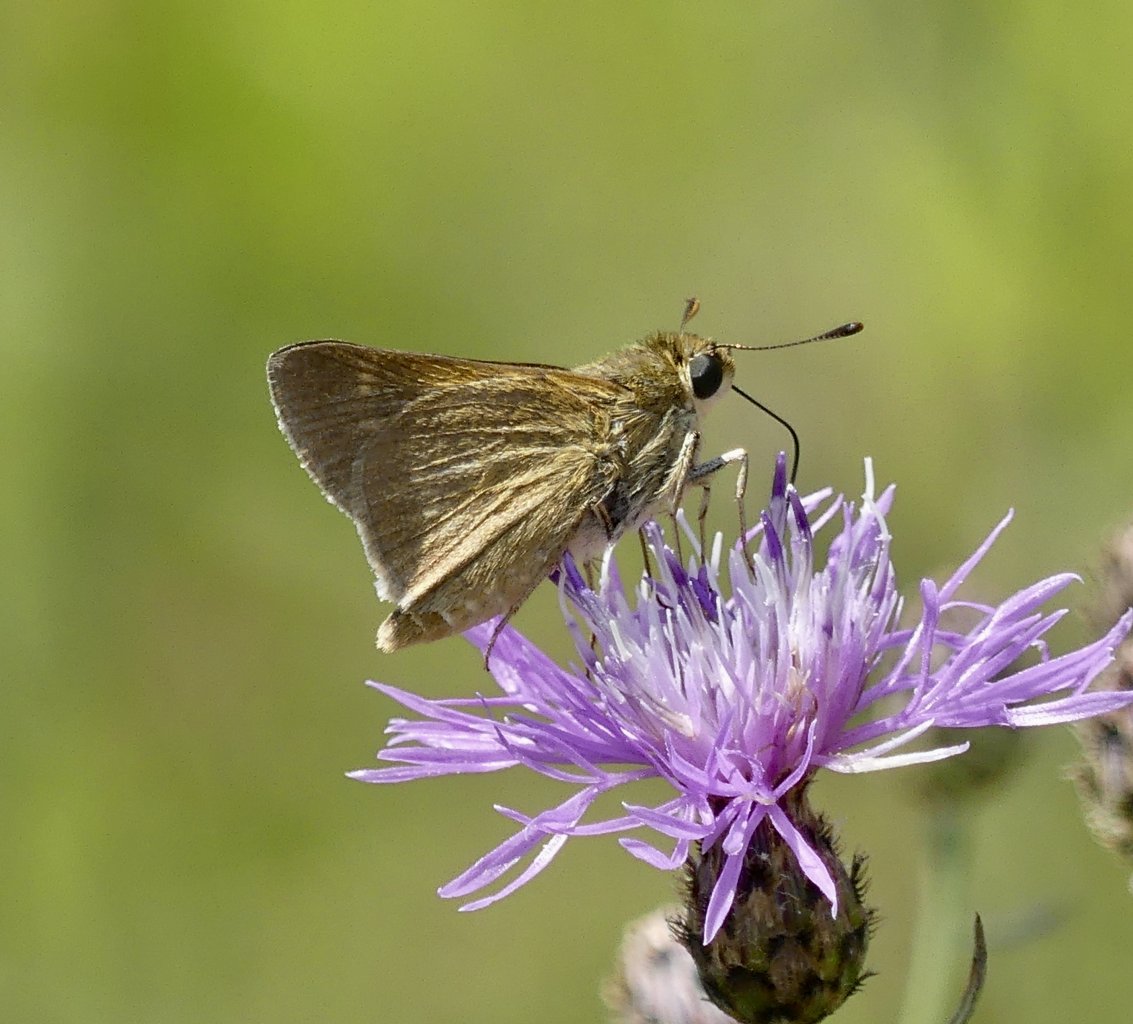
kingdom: Animalia
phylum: Arthropoda
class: Insecta
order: Lepidoptera
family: Hesperiidae
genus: Polites
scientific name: Polites
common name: Crossline Skipper
